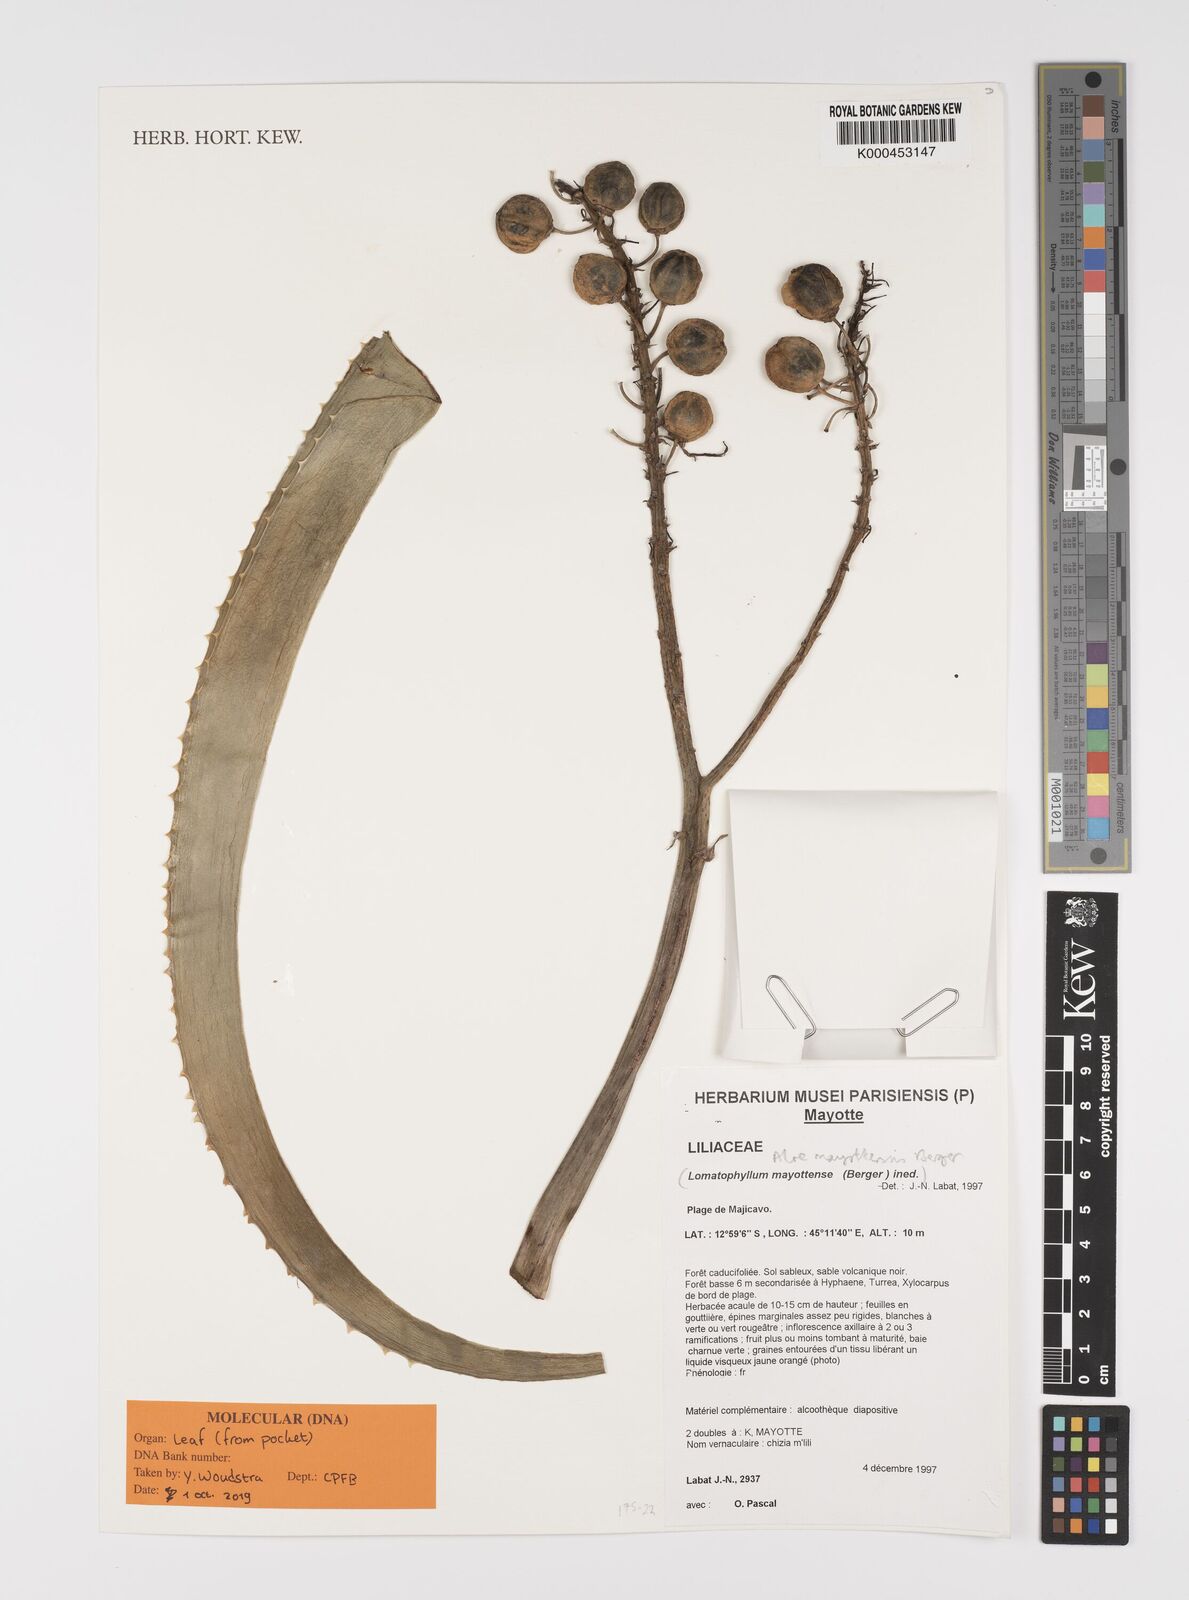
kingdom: Plantae
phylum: Tracheophyta
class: Liliopsida
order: Asparagales
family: Asphodelaceae
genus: Aloe
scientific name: Aloe mayottensis
